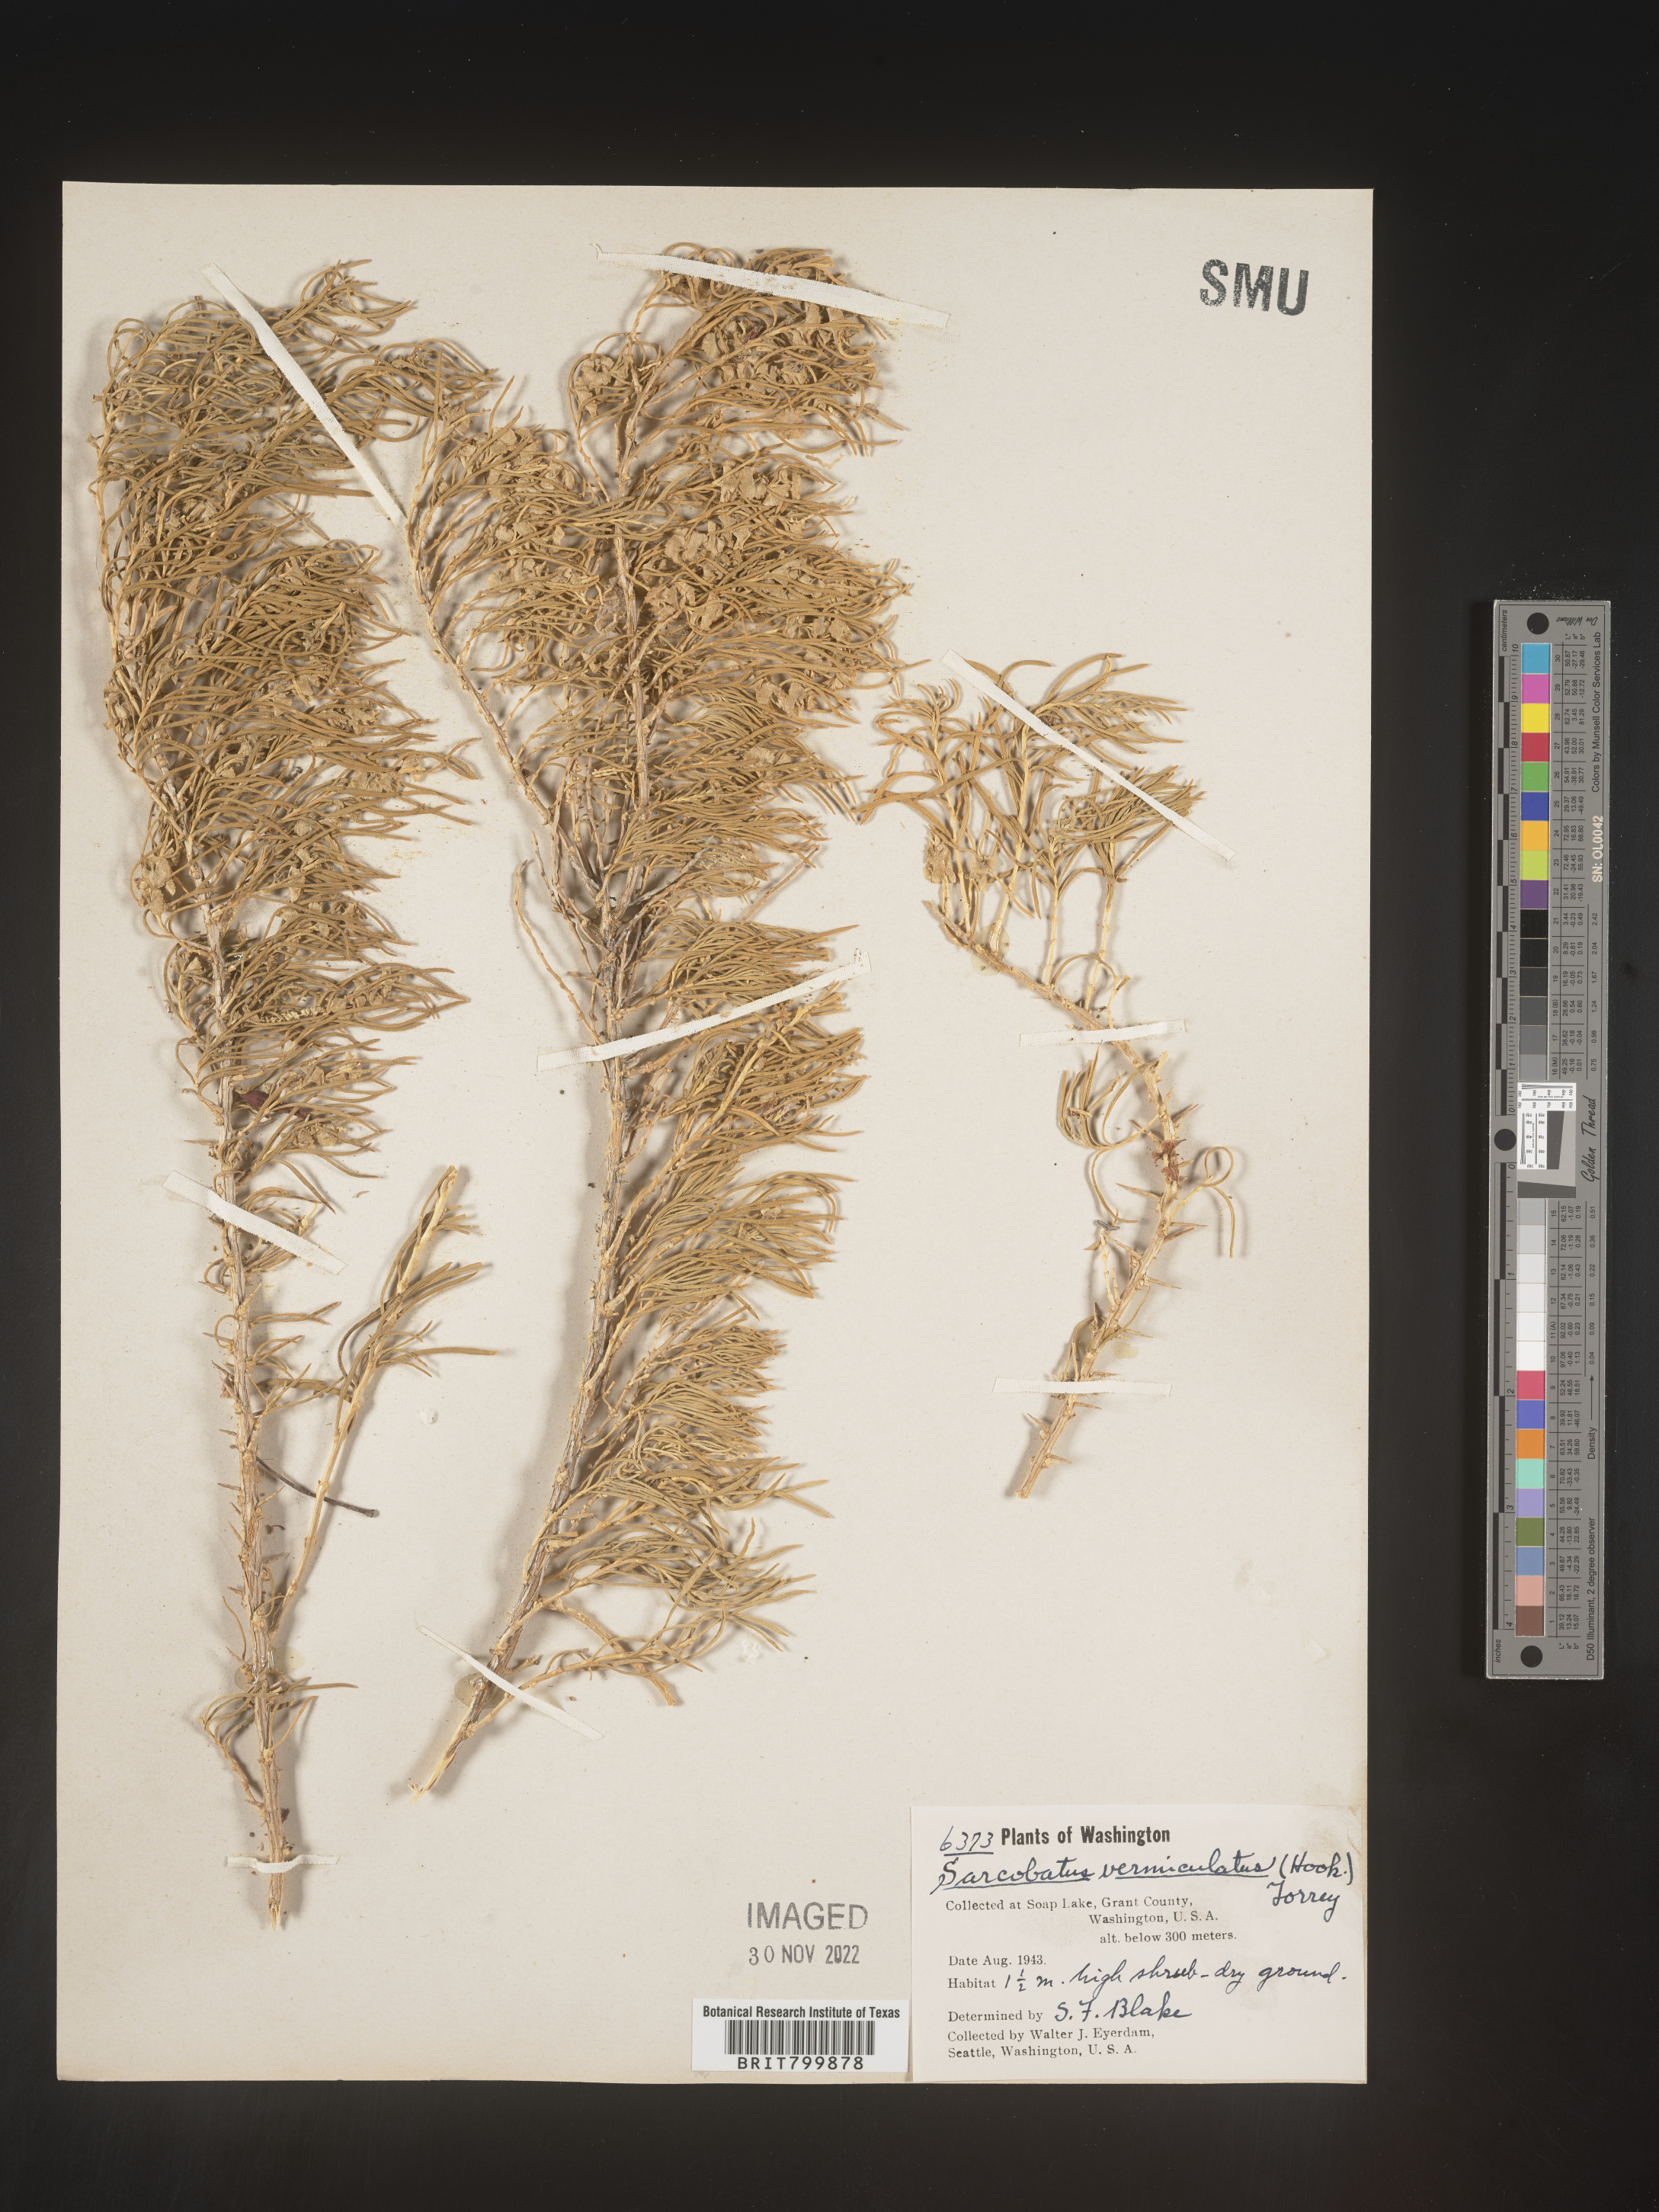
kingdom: Plantae
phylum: Tracheophyta
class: Magnoliopsida
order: Caryophyllales
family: Sarcobataceae
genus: Sarcobatus
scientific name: Sarcobatus vermiculatus
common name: Greasewood
